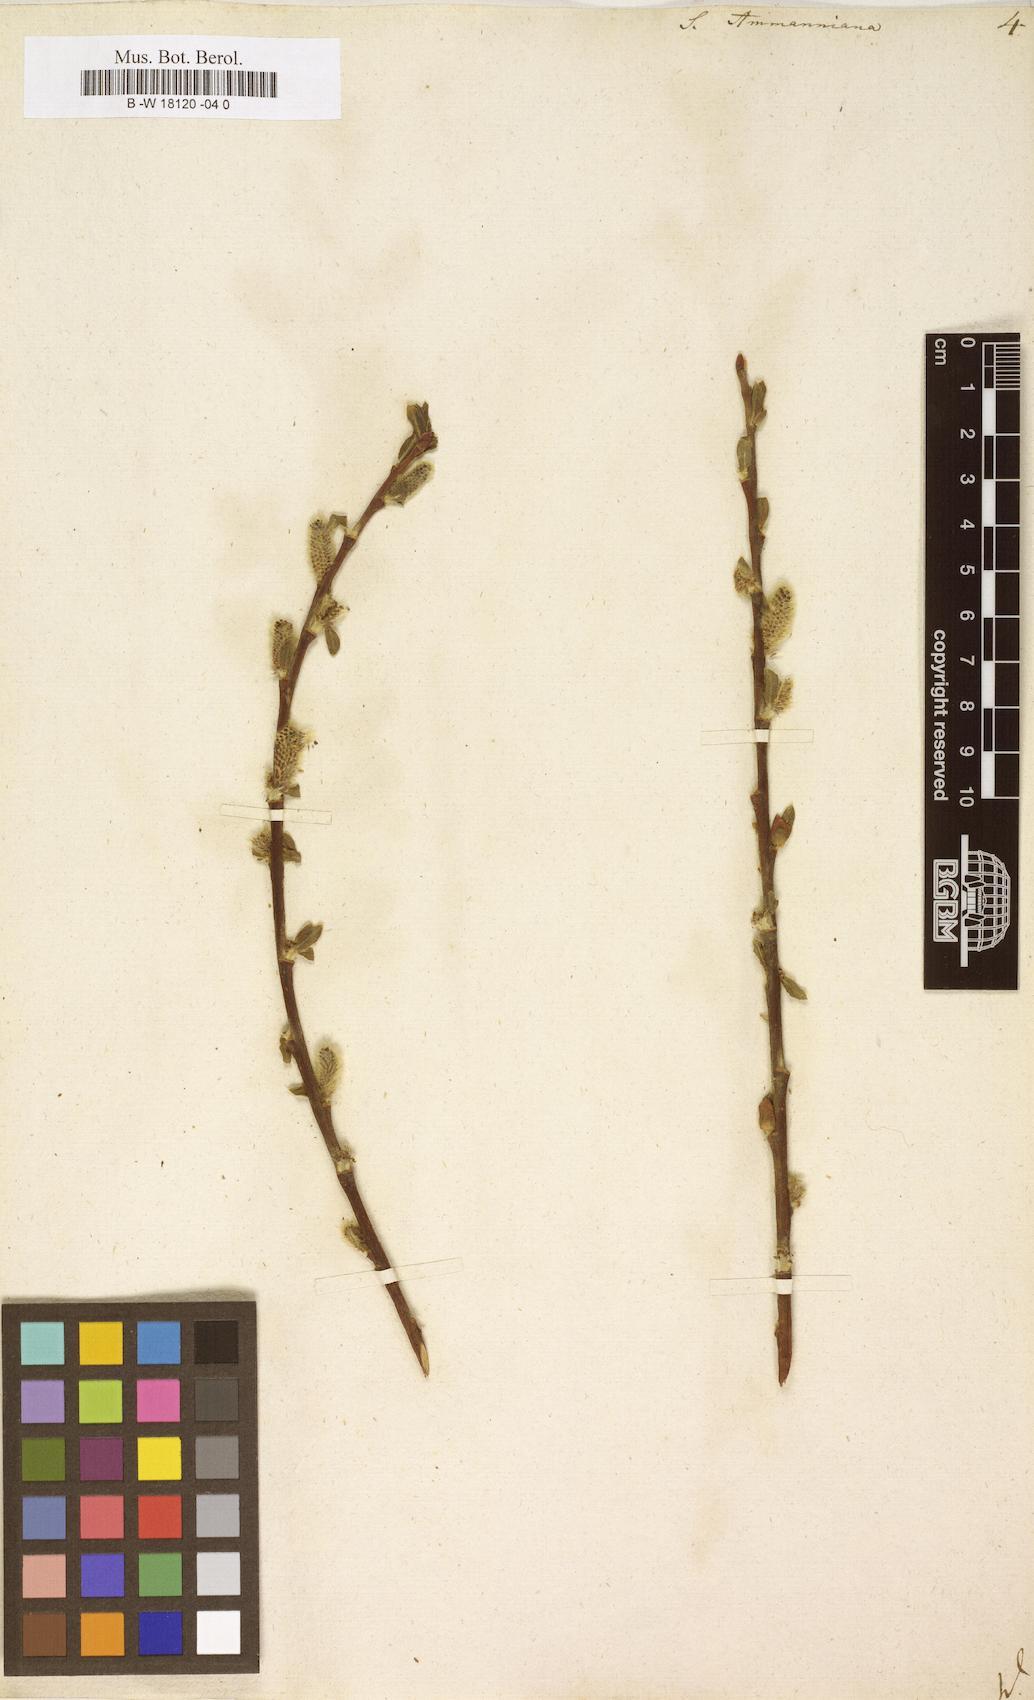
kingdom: Plantae
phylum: Tracheophyta
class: Magnoliopsida
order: Malpighiales
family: Salicaceae
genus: Salix
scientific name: Salix myrsinifolia
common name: Dark-leaved willow
